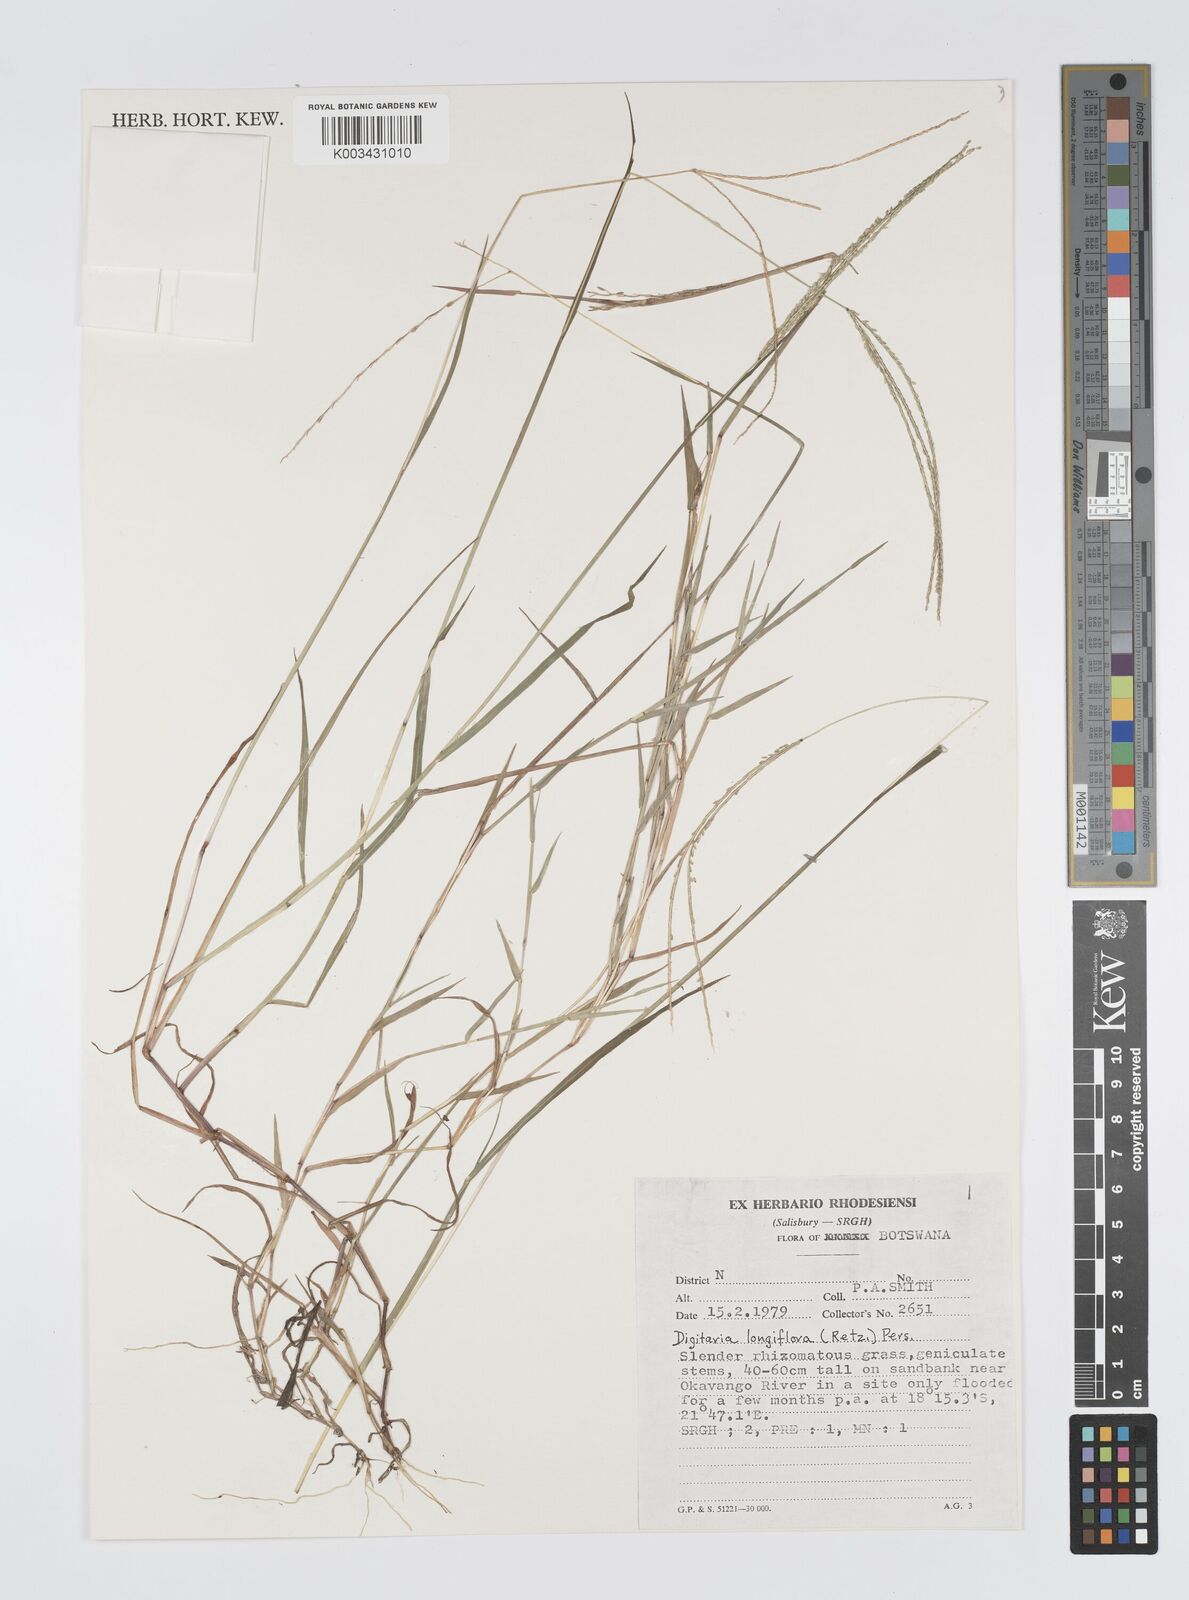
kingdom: Plantae
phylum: Tracheophyta
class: Liliopsida
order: Poales
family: Poaceae
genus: Digitaria
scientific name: Digitaria longiflora
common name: Wire crabgrass
